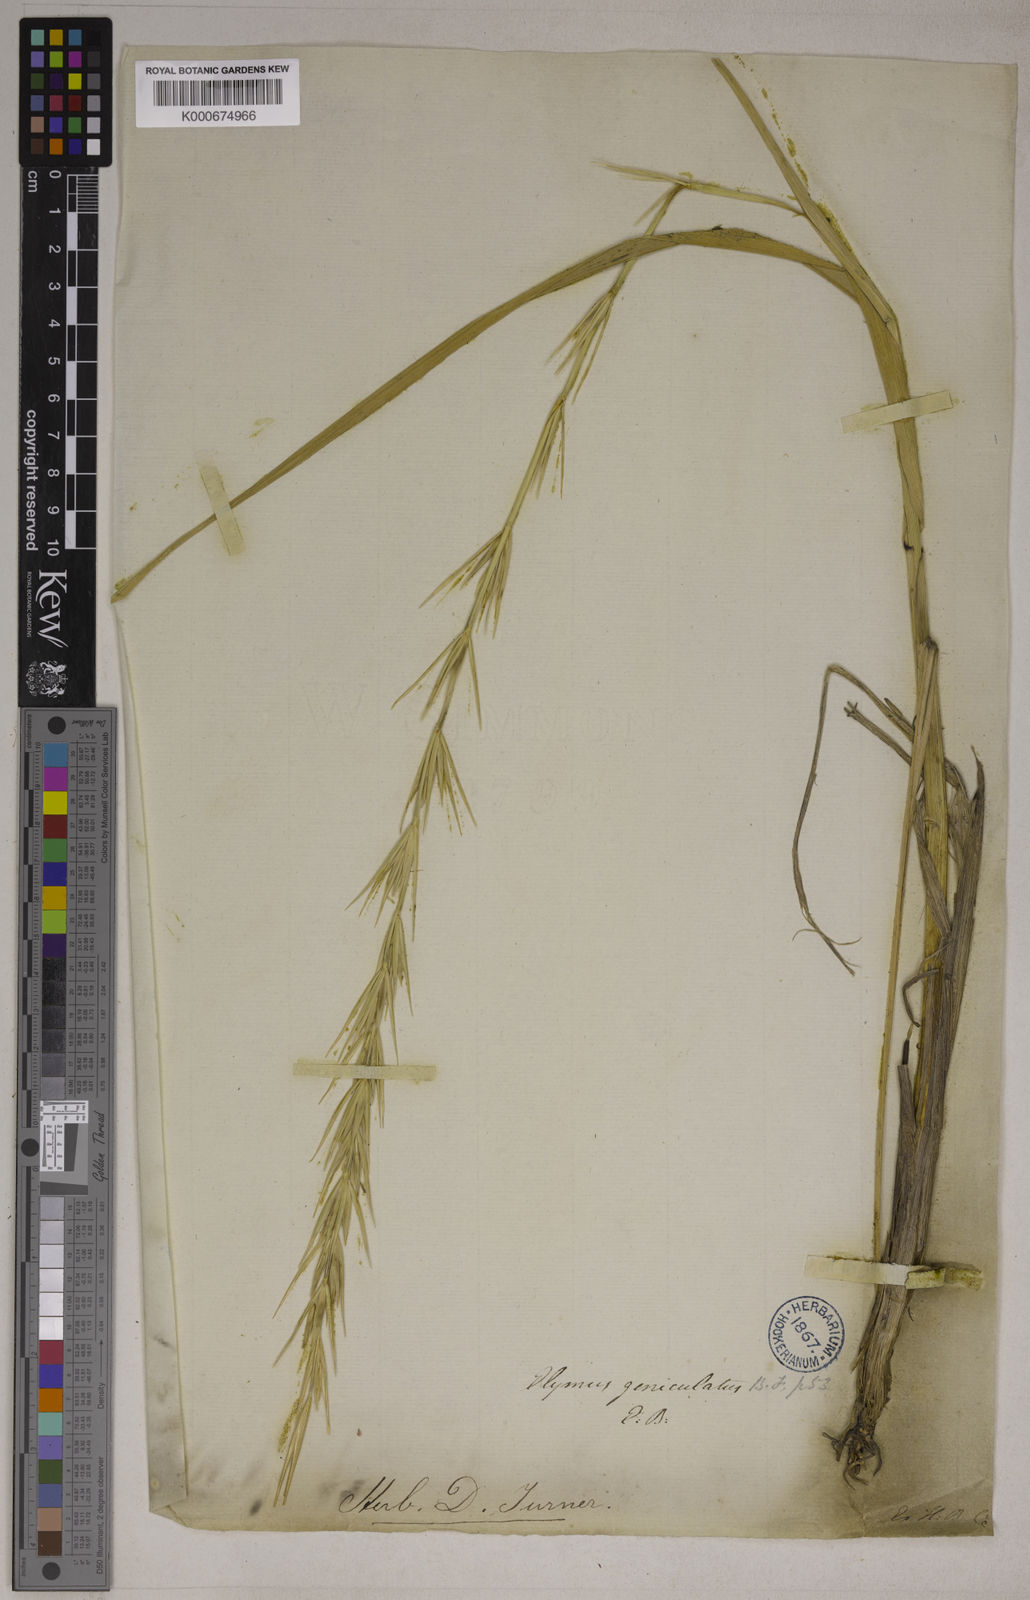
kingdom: Plantae
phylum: Tracheophyta
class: Liliopsida
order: Poales
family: Poaceae
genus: Leymus
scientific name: Leymus arenarius
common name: Lyme-grass
